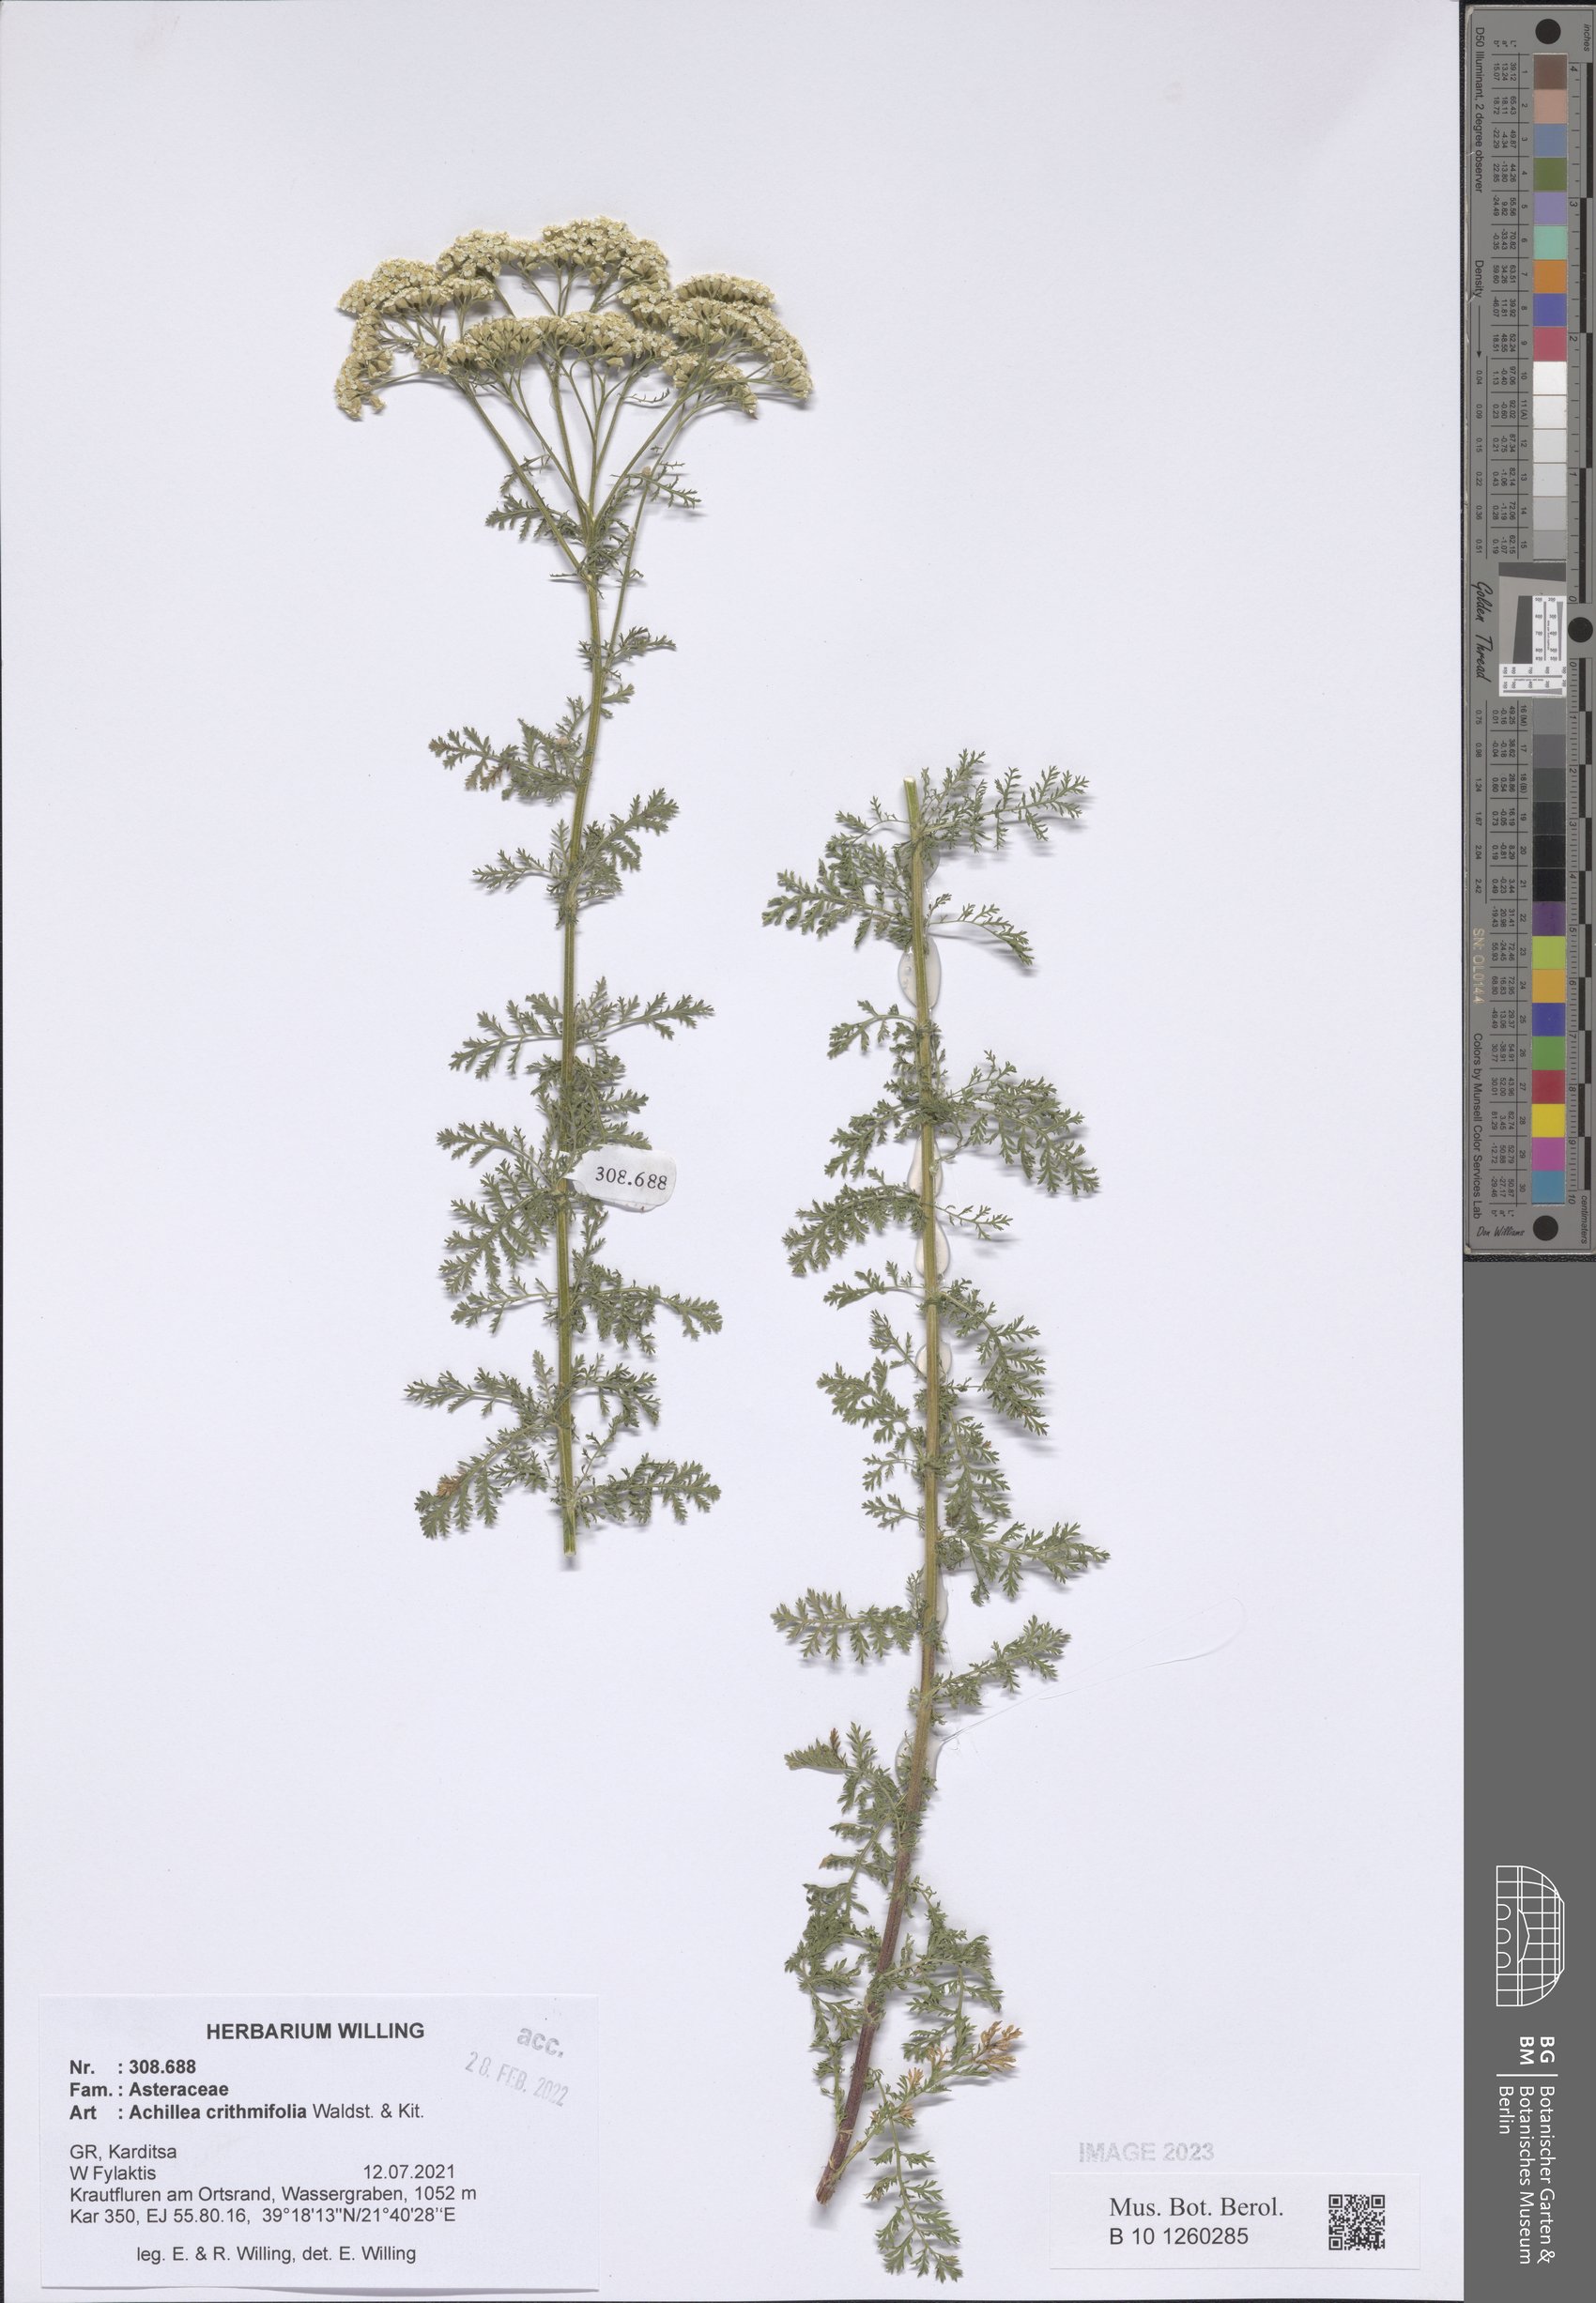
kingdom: Plantae
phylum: Tracheophyta
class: Magnoliopsida
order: Asterales
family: Asteraceae
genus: Achillea
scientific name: Achillea crithmifolia
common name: Yarrow
